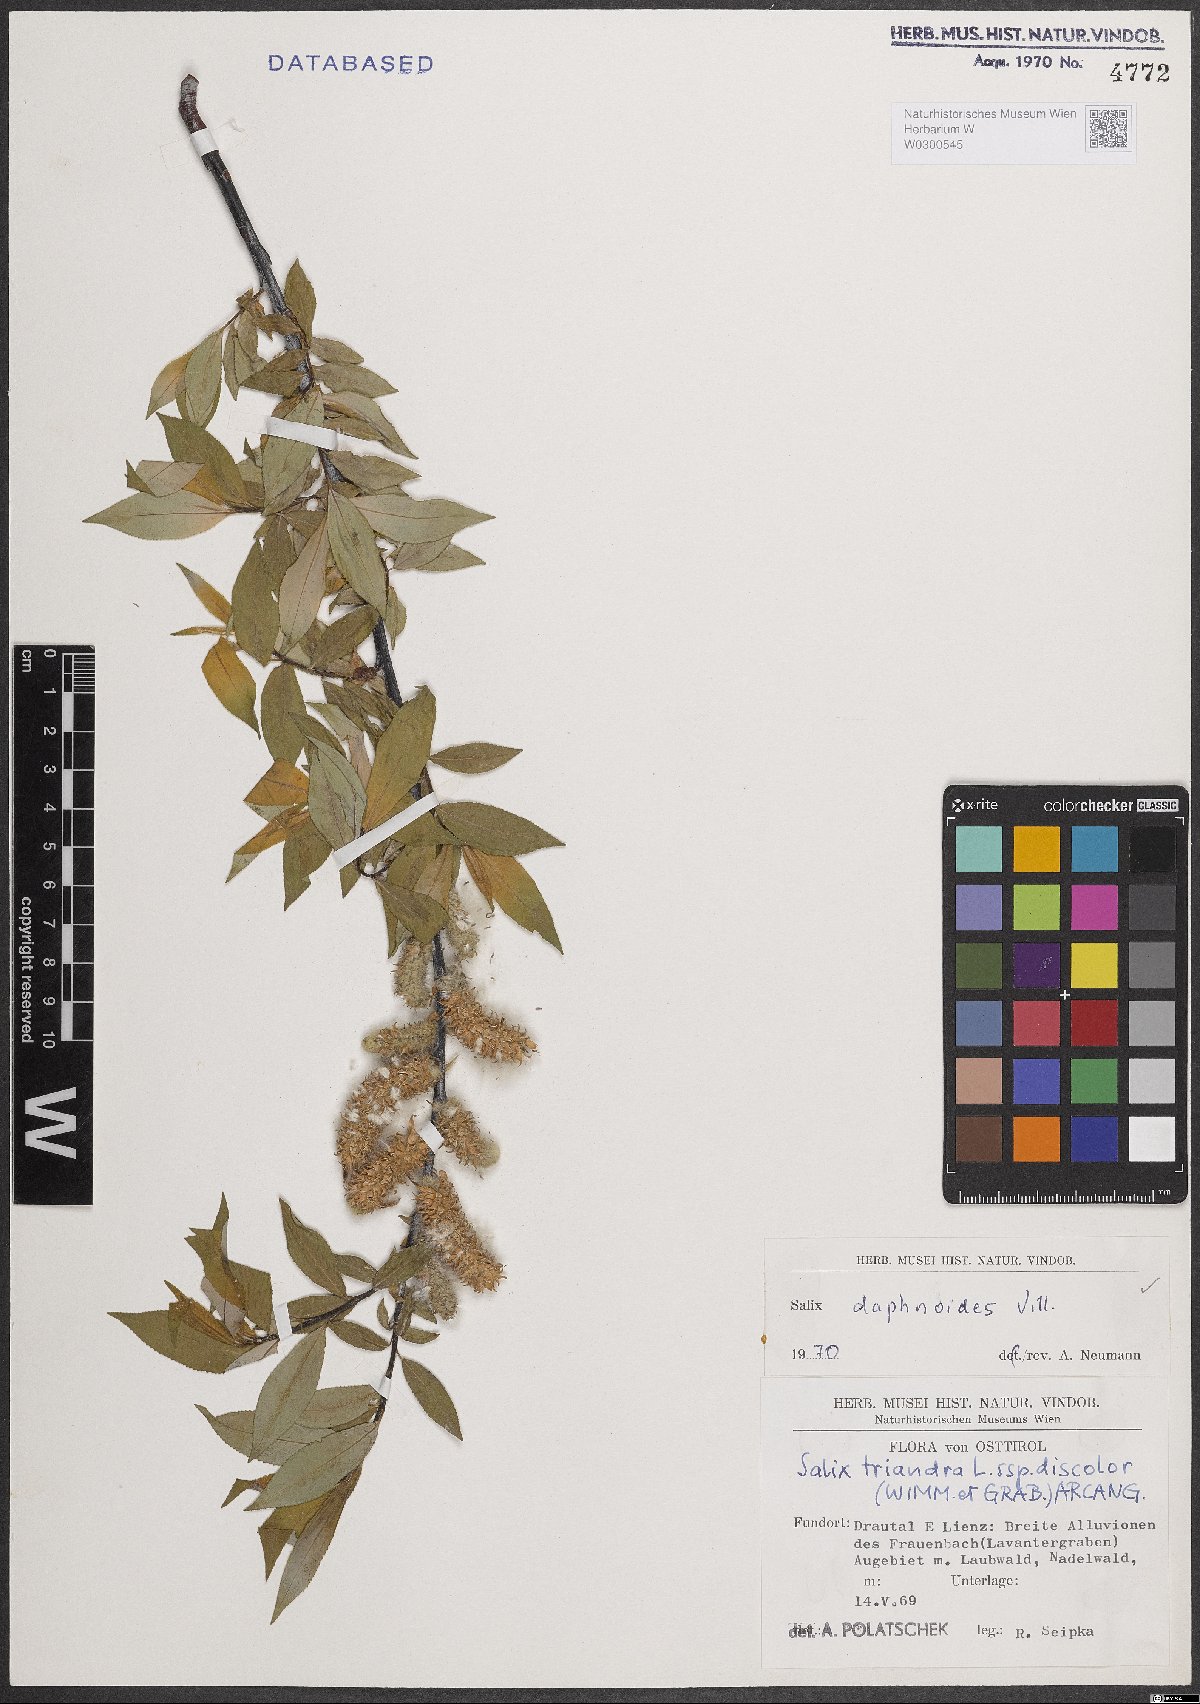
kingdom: Plantae
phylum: Tracheophyta
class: Magnoliopsida
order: Malpighiales
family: Salicaceae
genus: Salix
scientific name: Salix daphnoides
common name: European violet-willow
